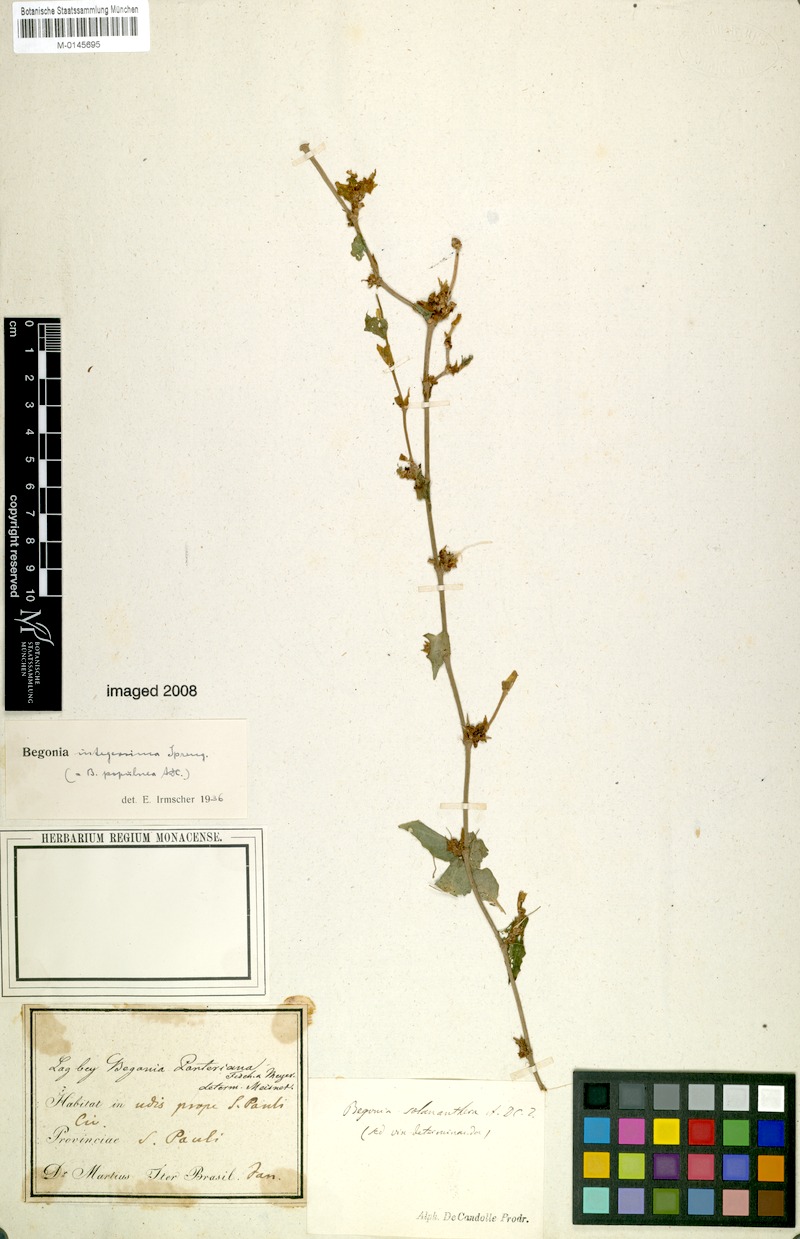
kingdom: Plantae
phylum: Tracheophyta
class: Magnoliopsida
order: Cucurbitales
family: Begoniaceae
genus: Begonia
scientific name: Begonia integerrima
